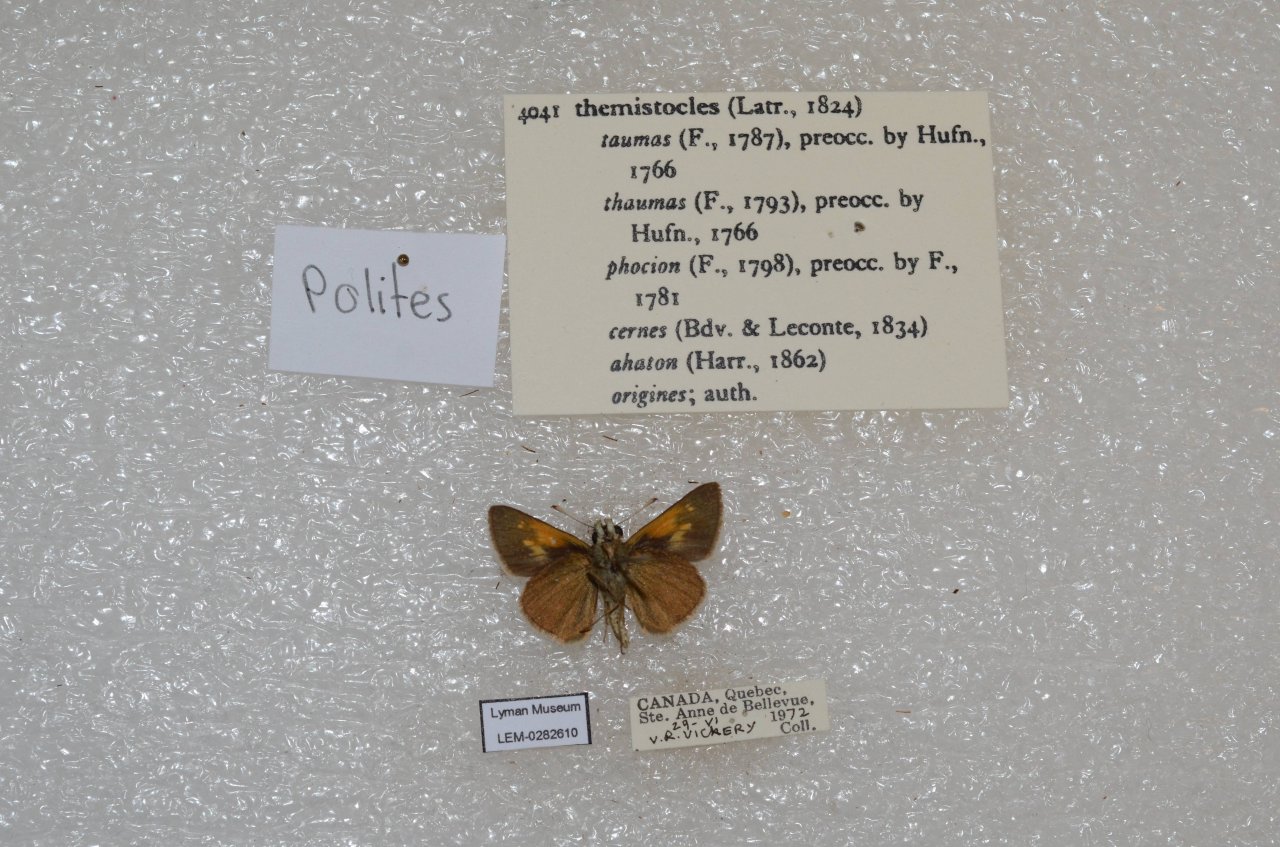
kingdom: Animalia
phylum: Arthropoda
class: Insecta
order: Lepidoptera
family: Hesperiidae
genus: Polites
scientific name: Polites themistocles
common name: Tawny-edged Skipper
